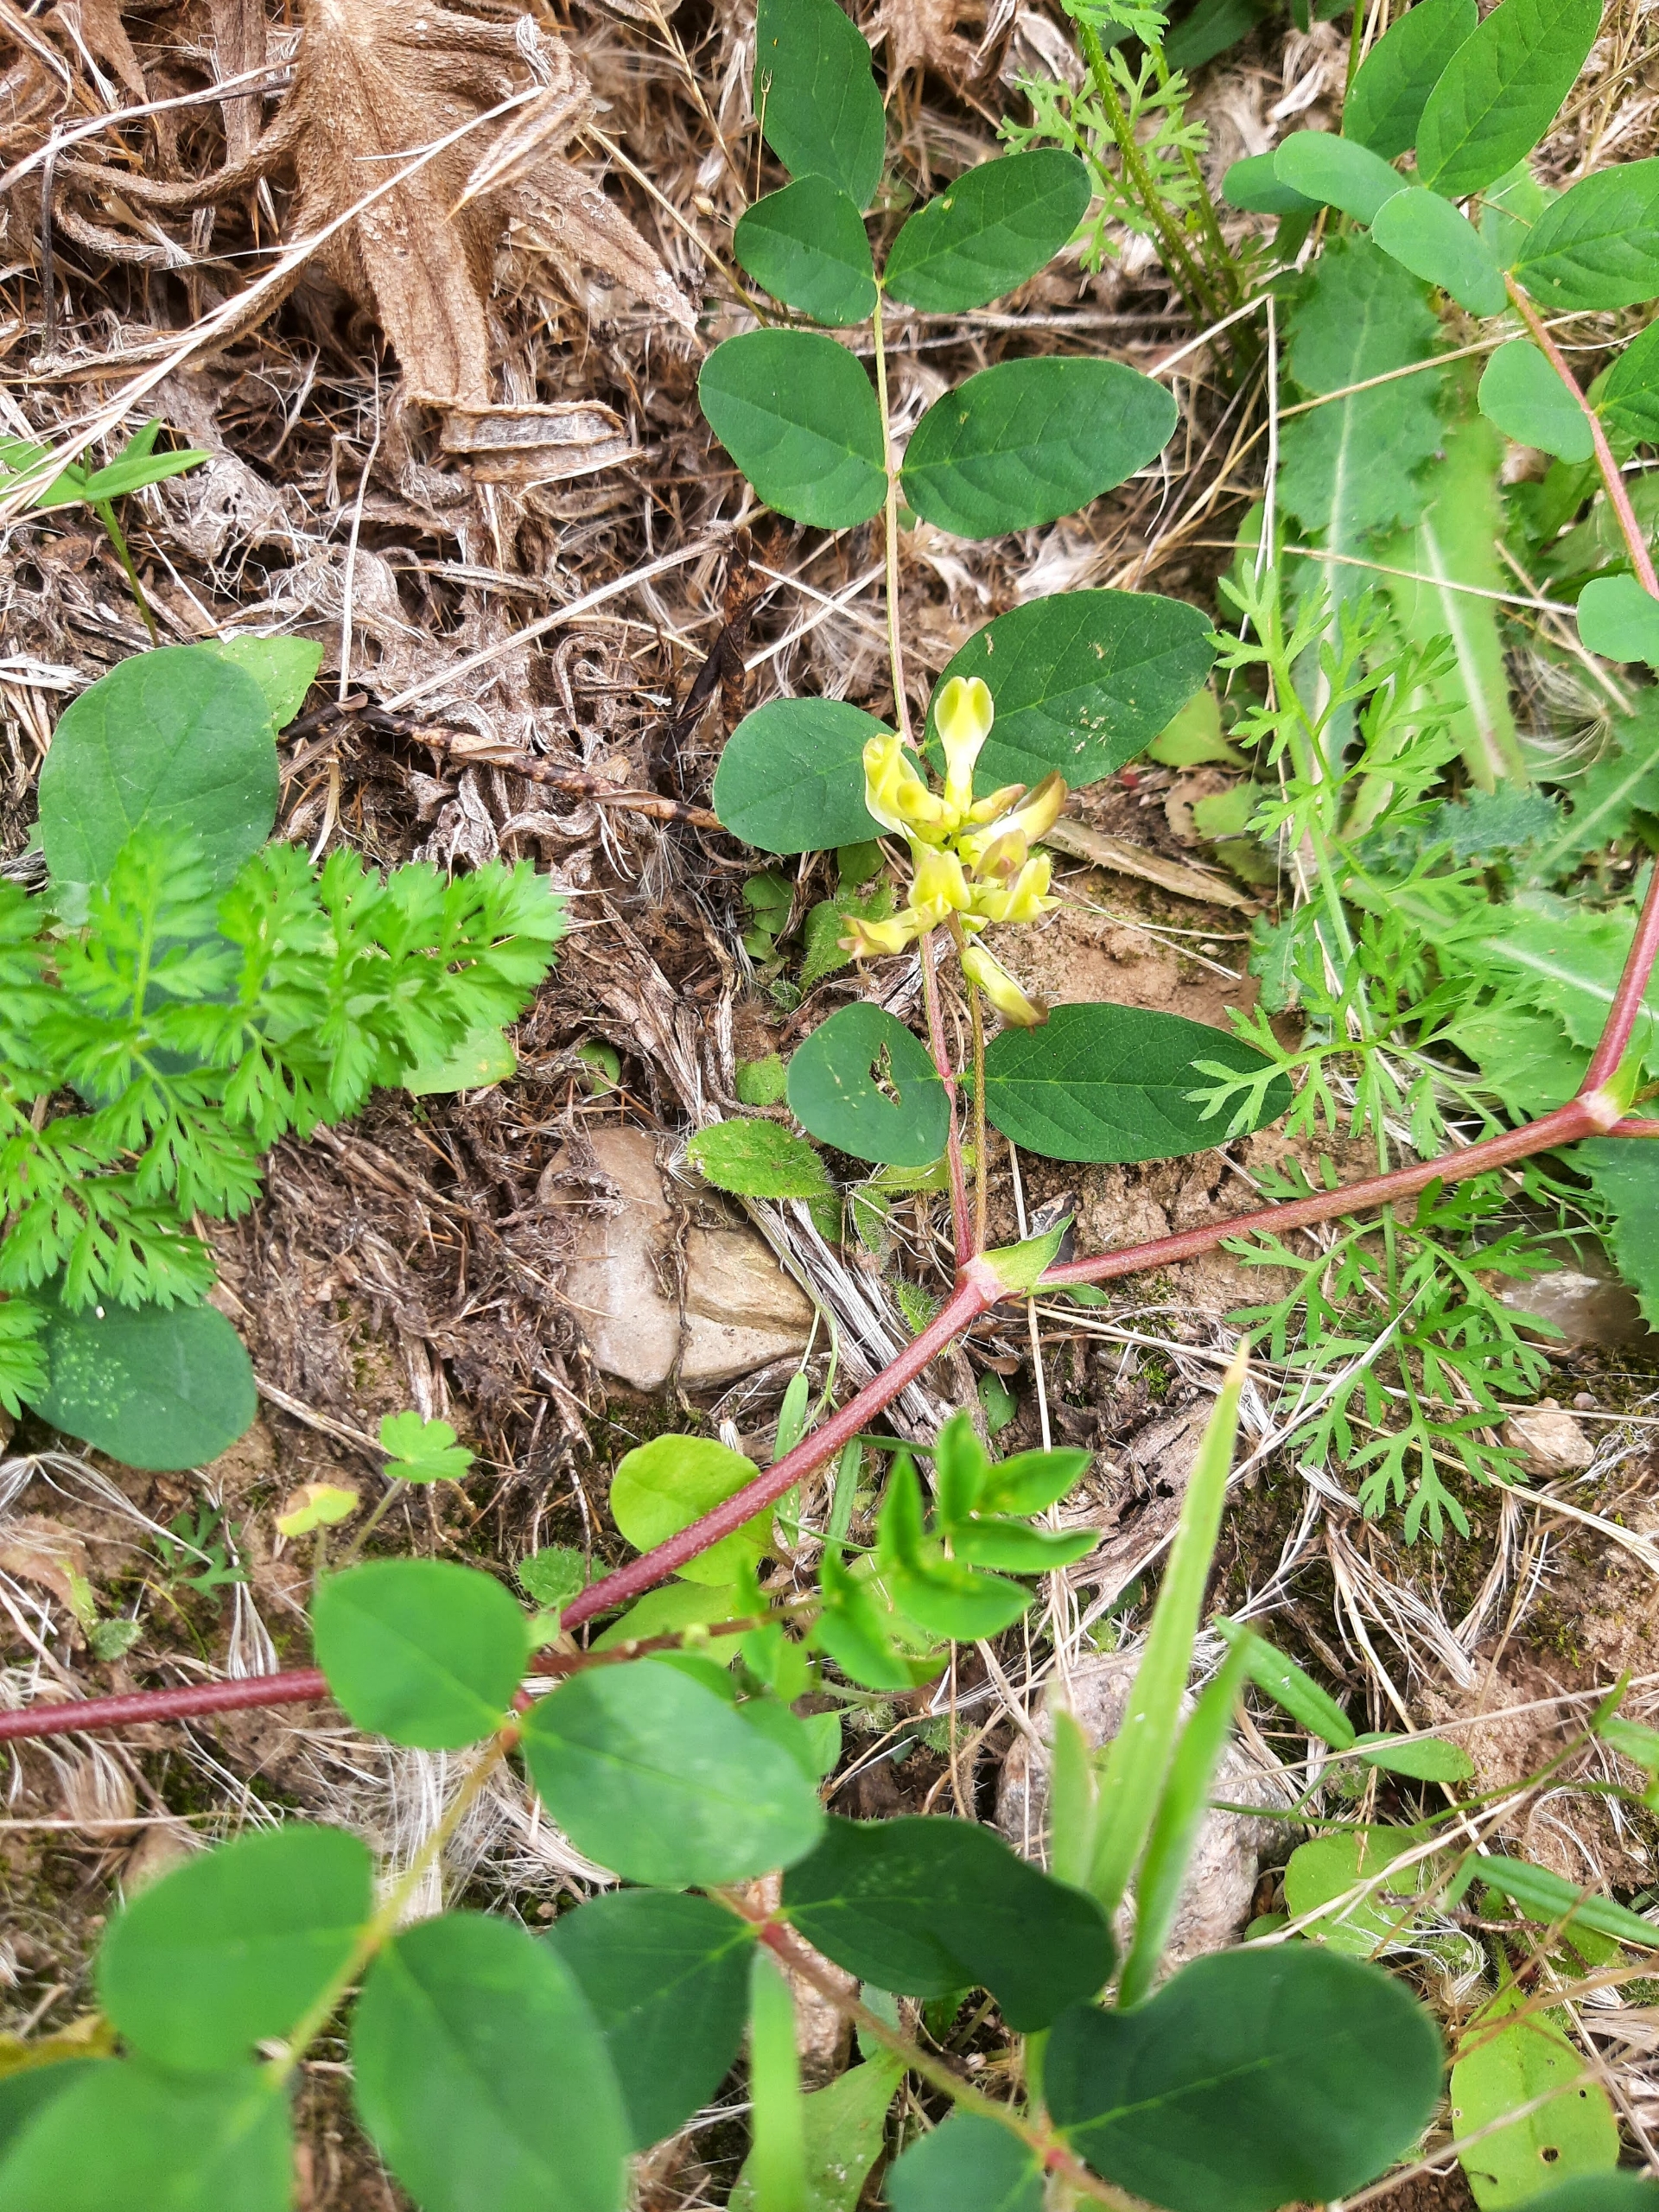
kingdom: Plantae
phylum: Tracheophyta
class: Magnoliopsida
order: Fabales
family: Fabaceae
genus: Astragalus
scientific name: Astragalus glycyphyllos
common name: Sød astragel
